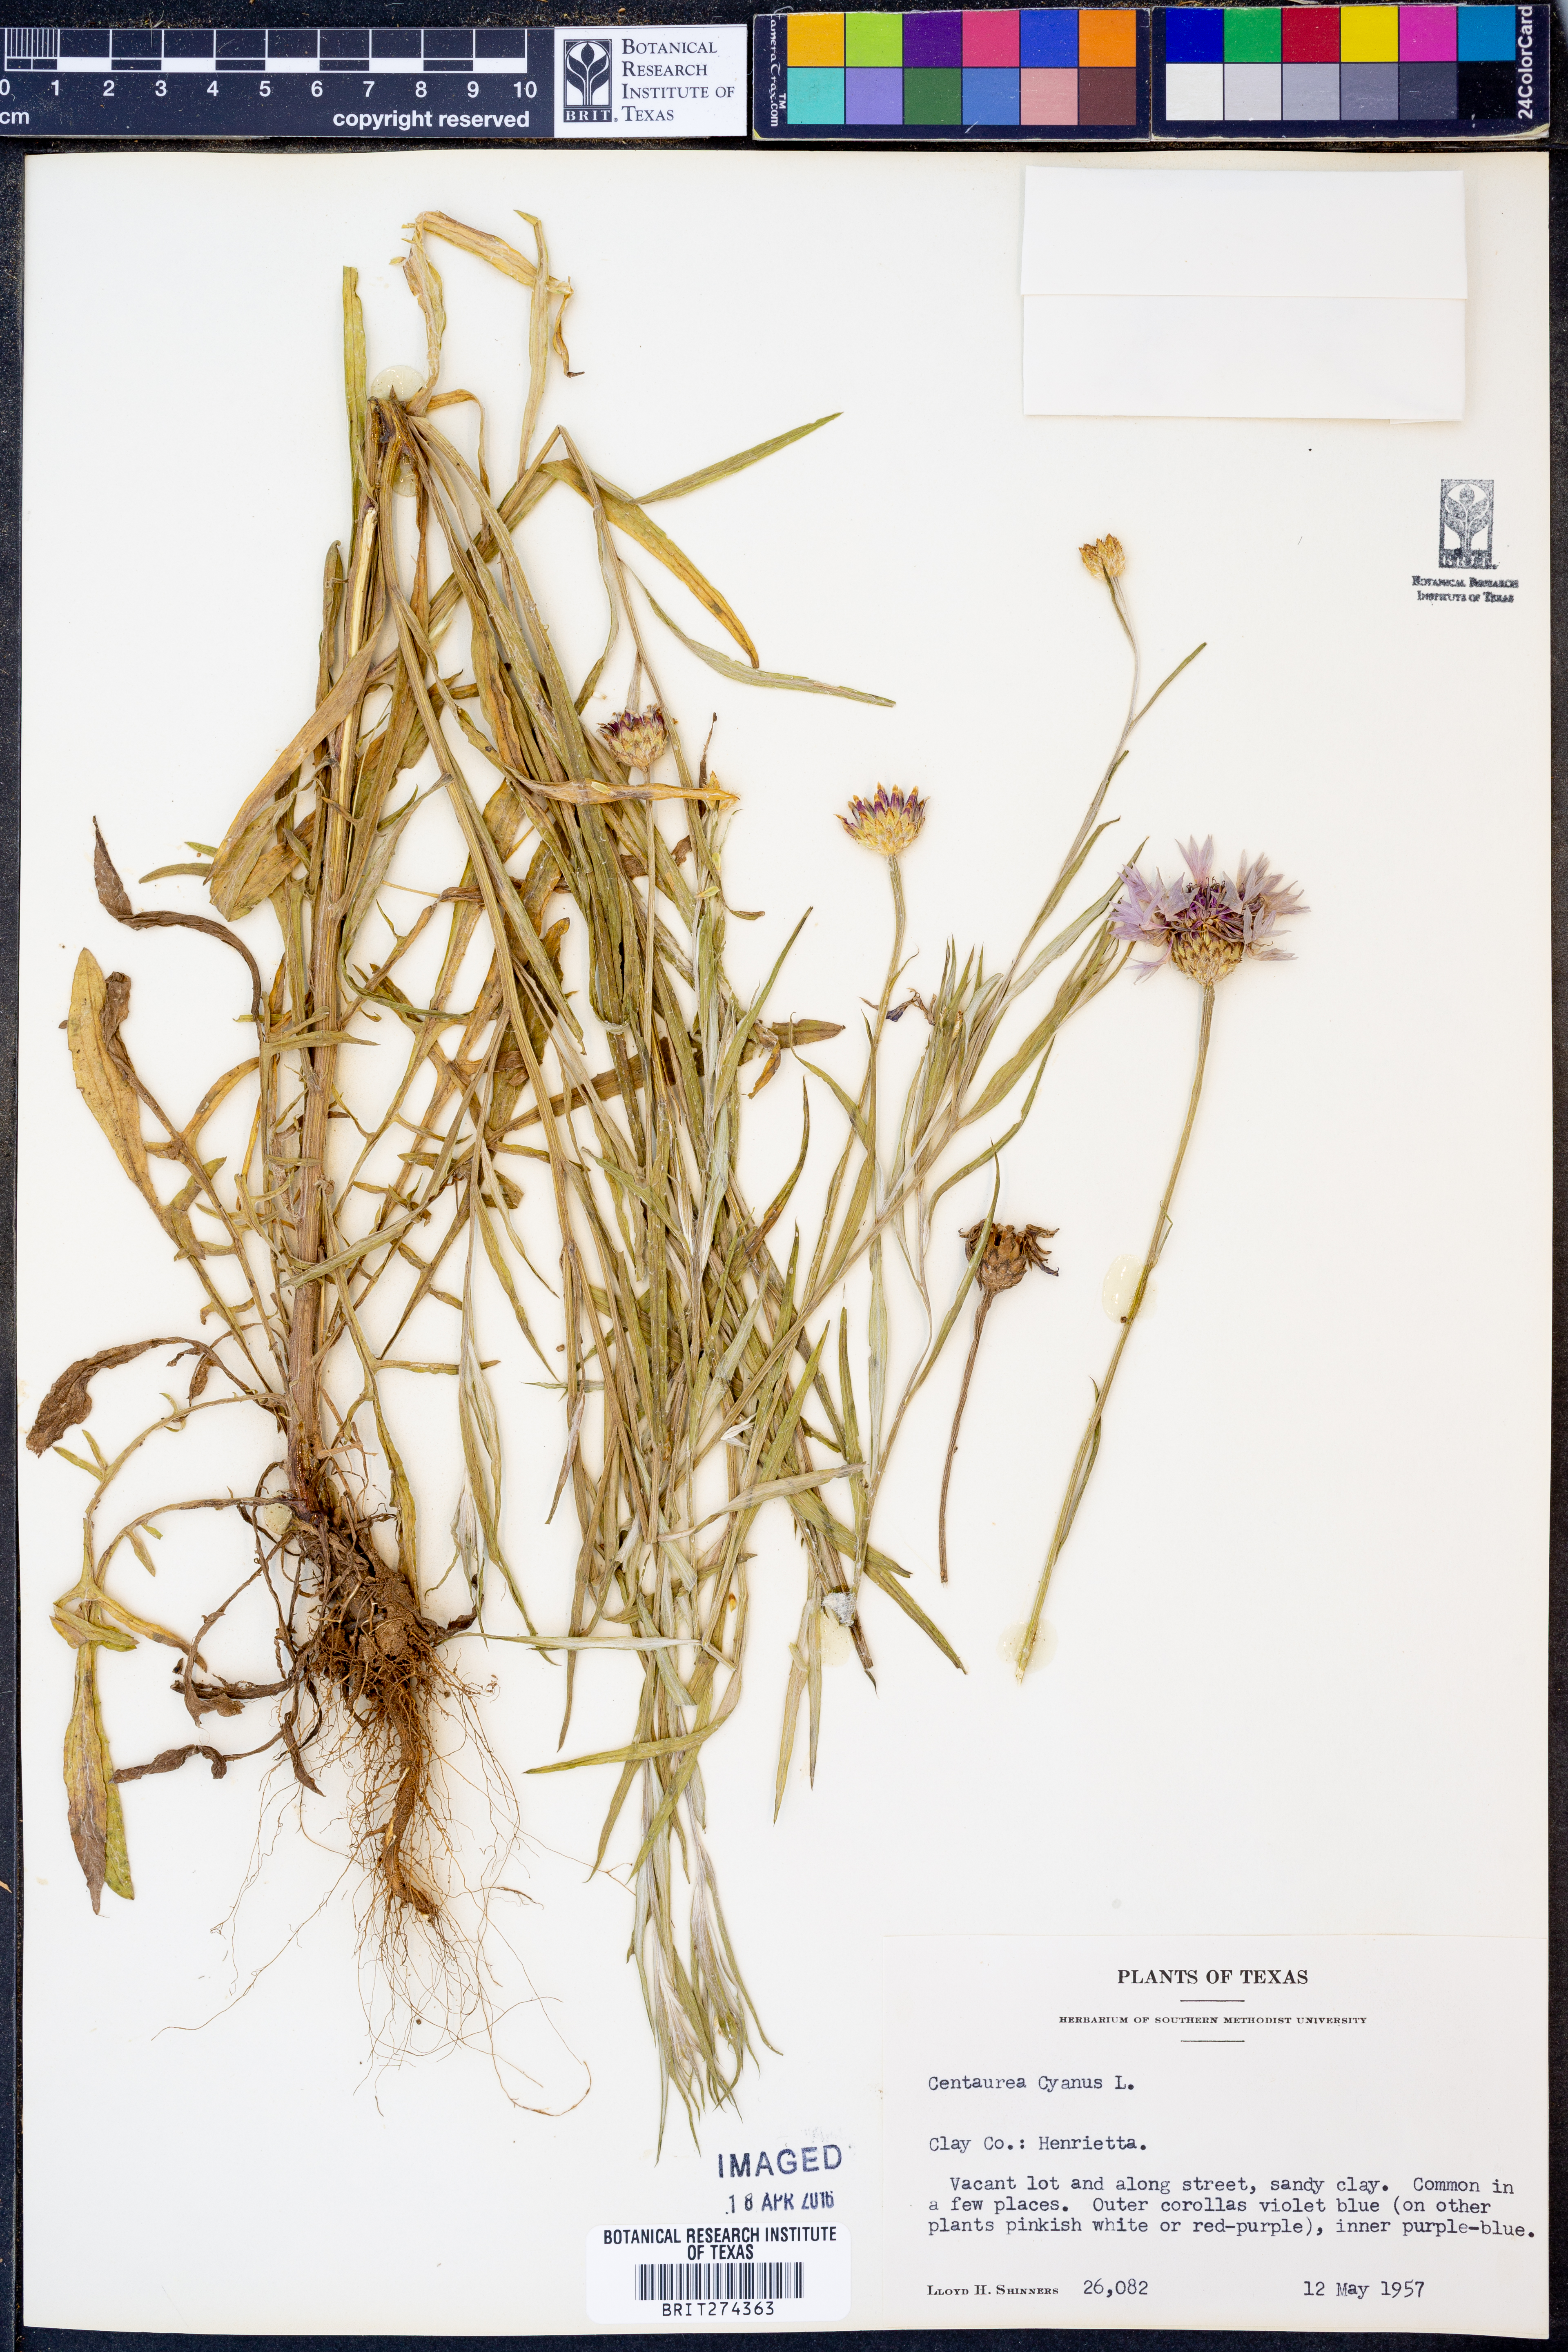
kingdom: Plantae
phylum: Tracheophyta
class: Magnoliopsida
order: Asterales
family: Asteraceae
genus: Centaurea
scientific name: Centaurea cyanus
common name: Cornflower
